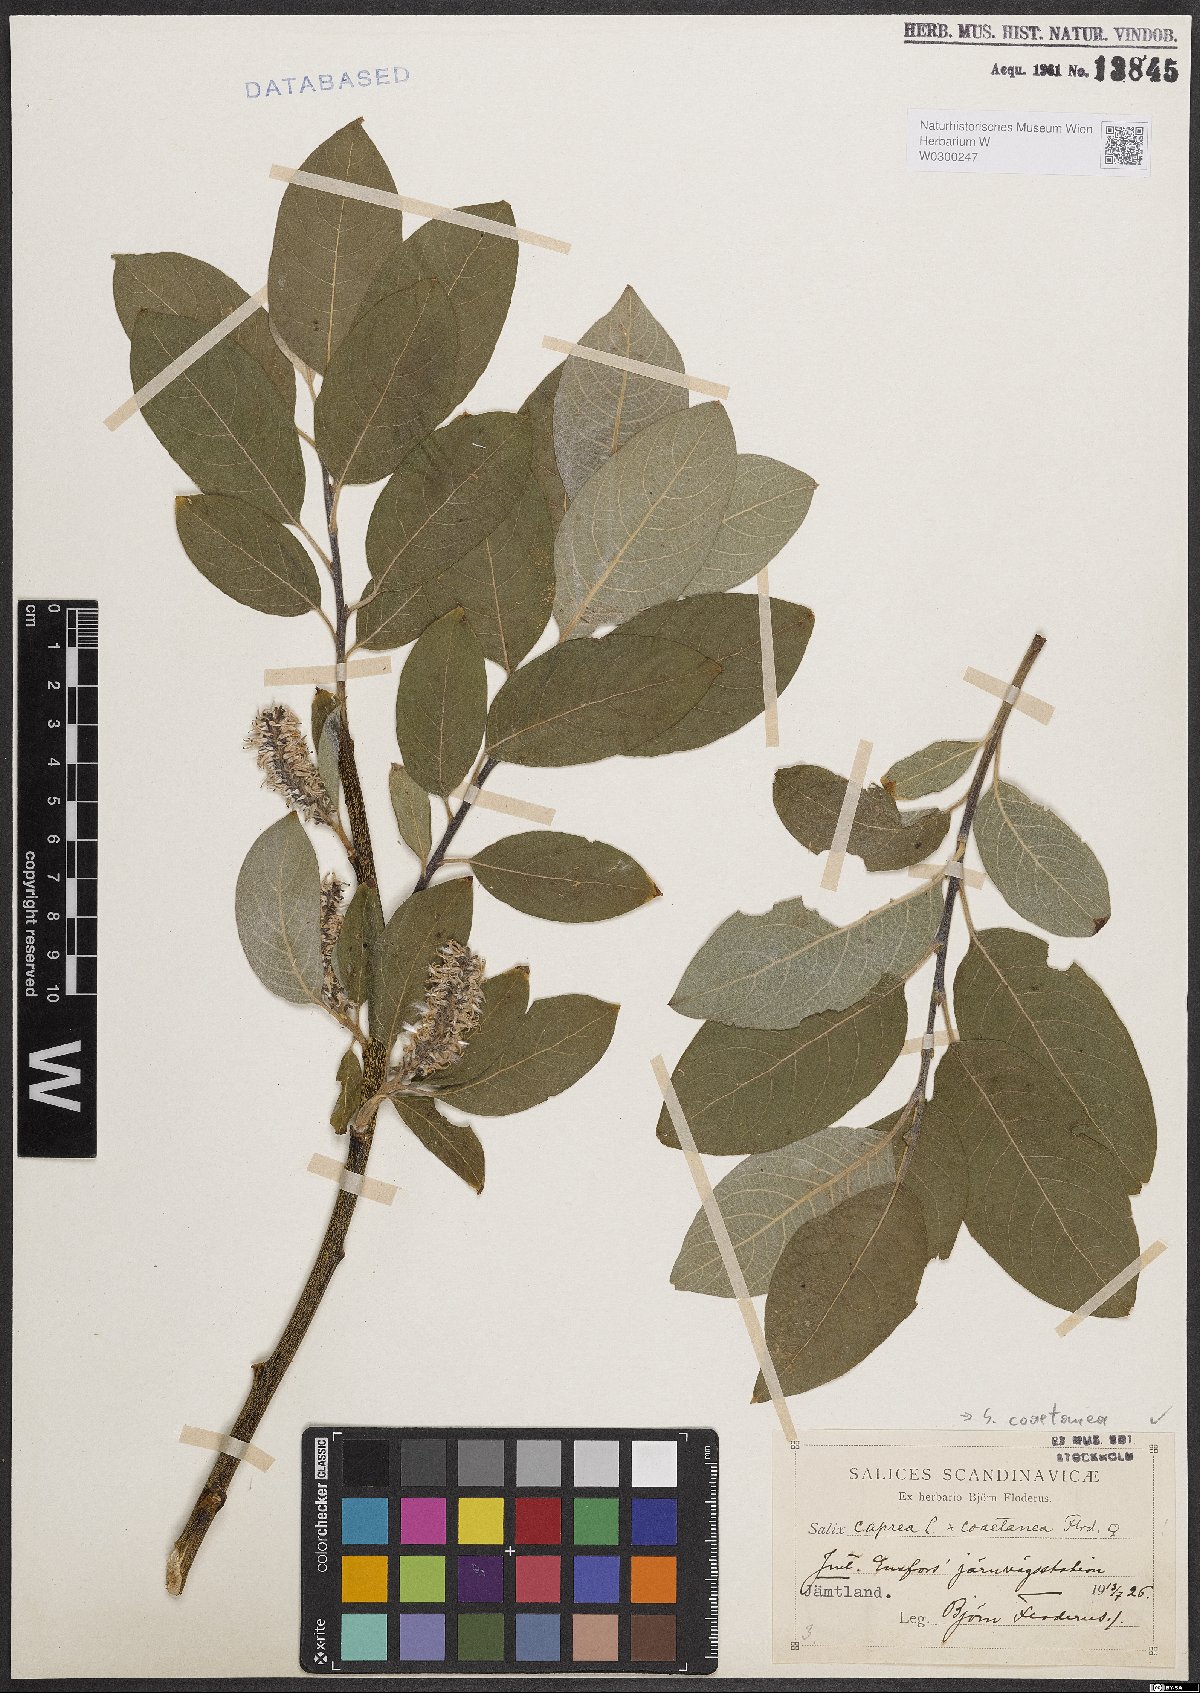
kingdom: Plantae
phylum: Tracheophyta
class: Magnoliopsida
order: Malpighiales
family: Salicaceae
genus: Salix
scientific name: Salix caprea
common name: Goat willow
